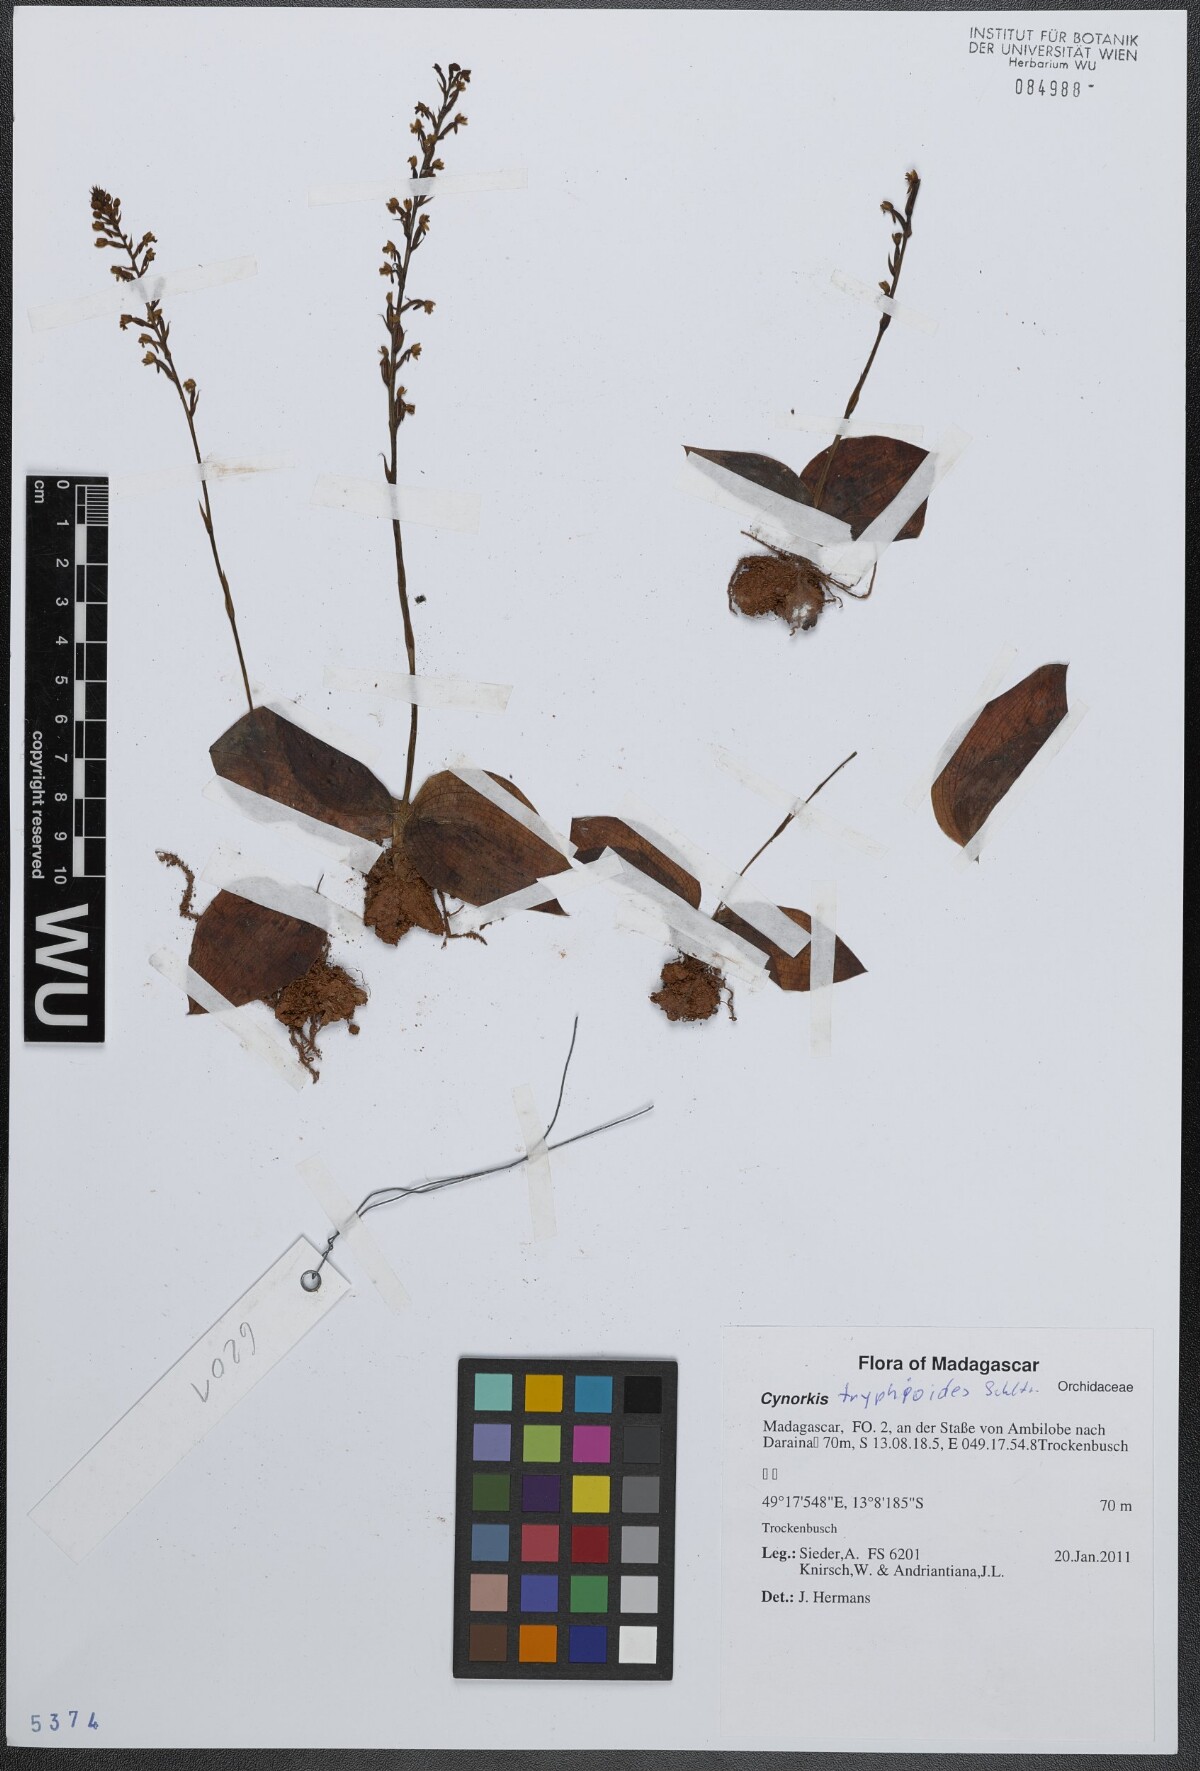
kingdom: Plantae
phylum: Tracheophyta
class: Liliopsida
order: Asparagales
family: Orchidaceae
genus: Cynorkis
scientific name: Cynorkis tryphioides
